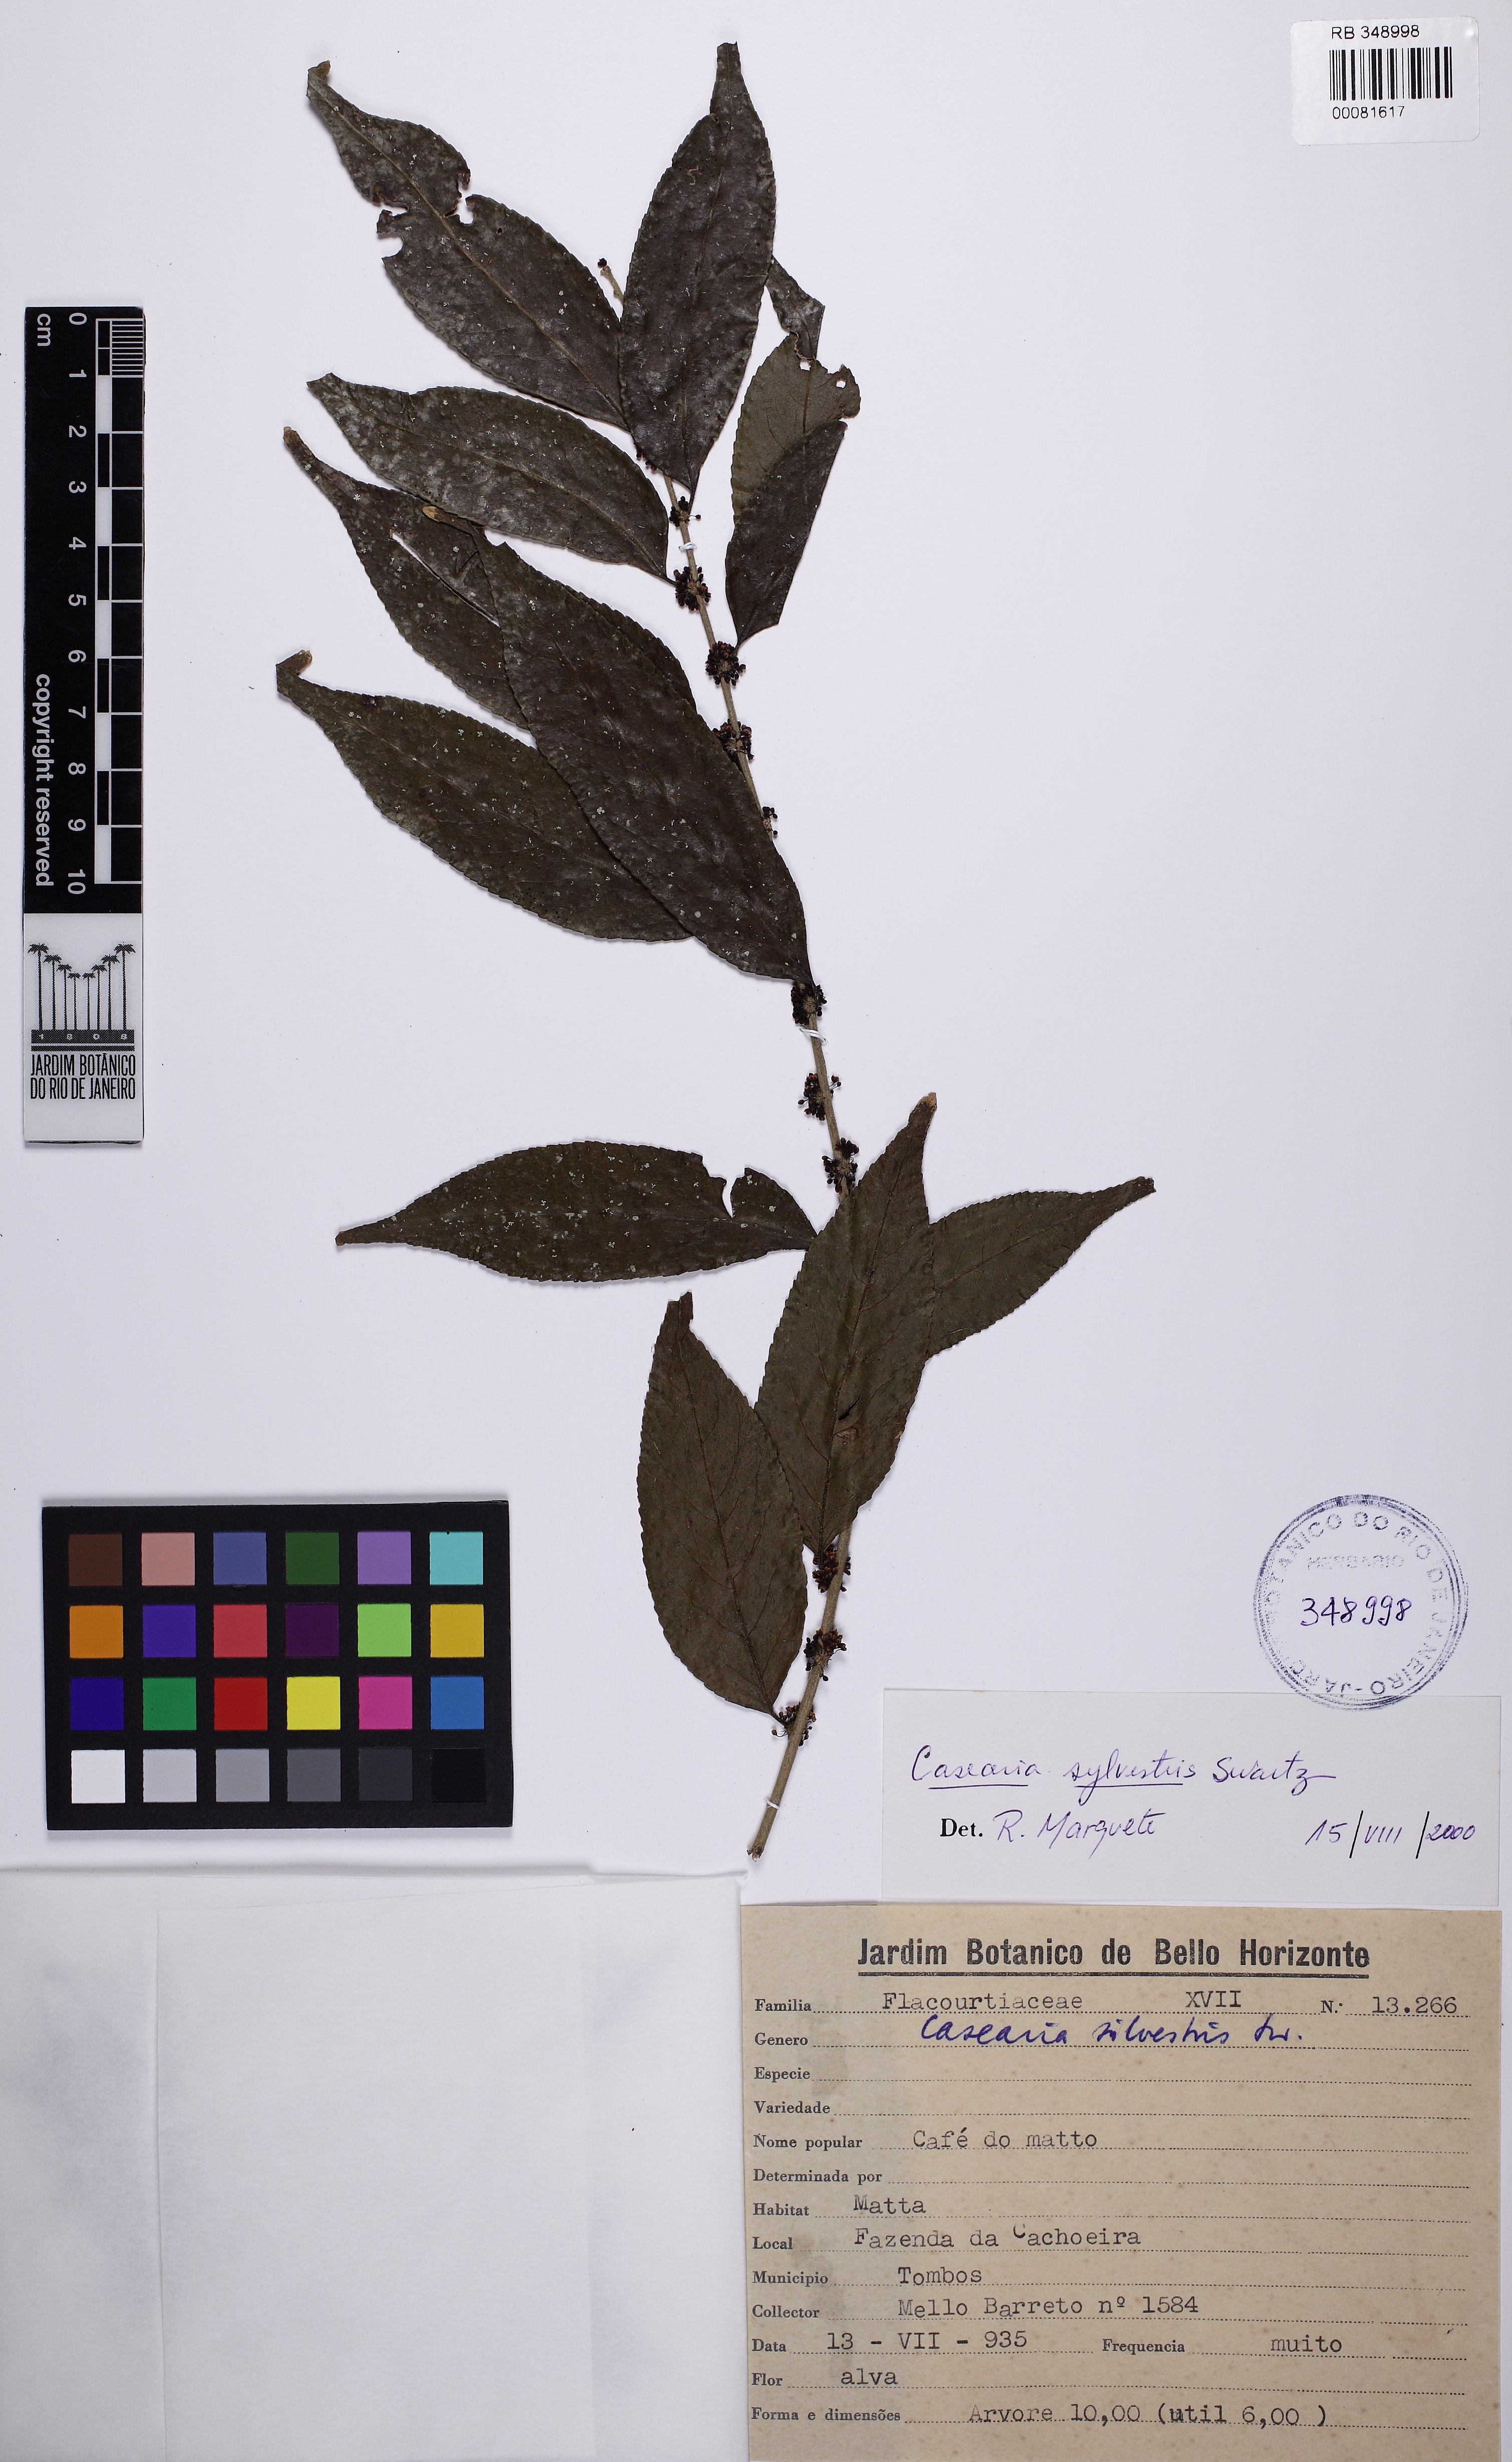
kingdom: Plantae
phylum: Tracheophyta
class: Magnoliopsida
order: Malpighiales
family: Salicaceae
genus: Casearia
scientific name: Casearia sylvestris
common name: Wild sage
